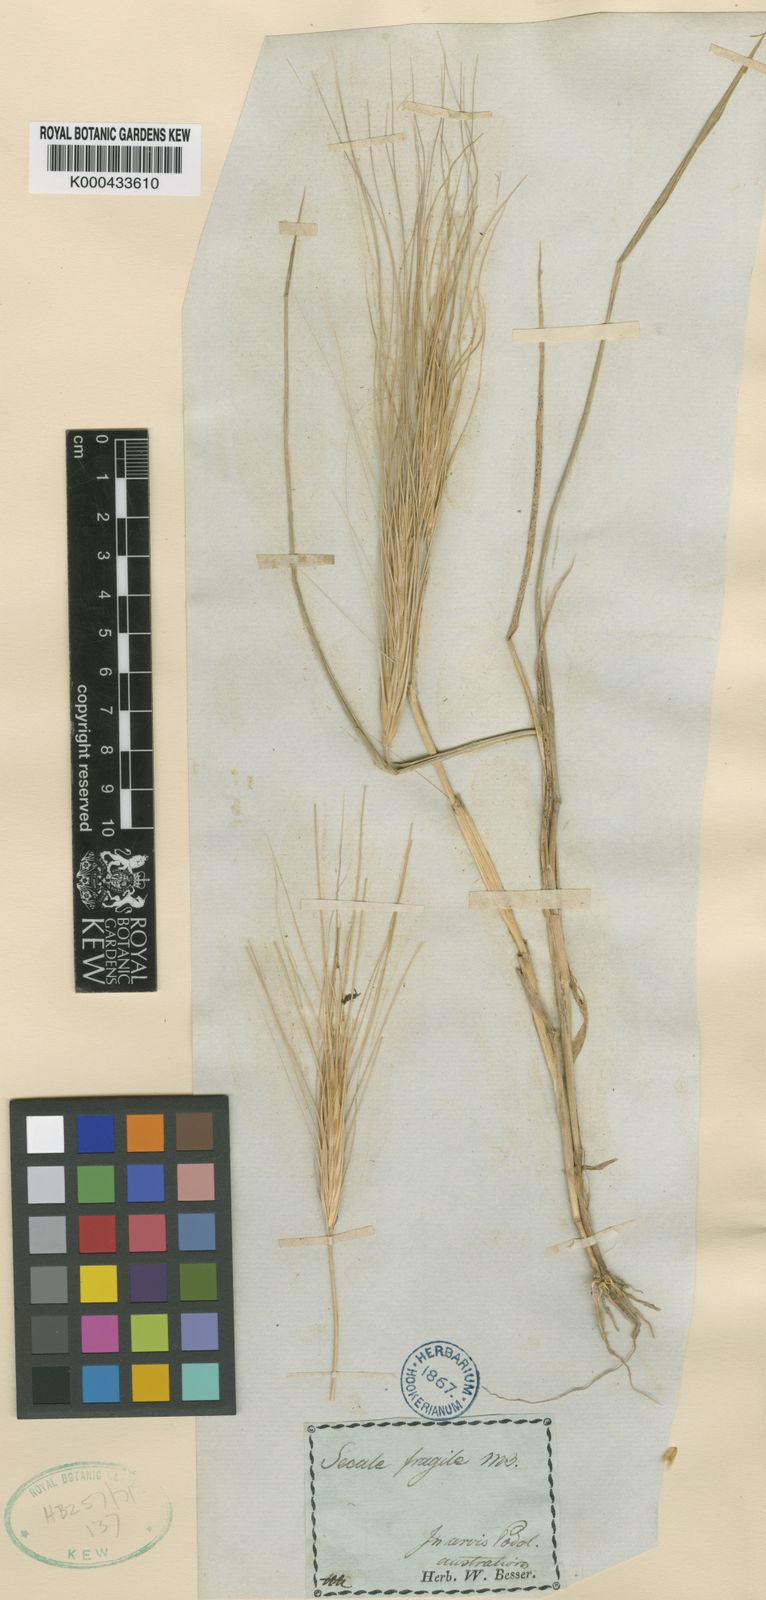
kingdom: Plantae
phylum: Tracheophyta
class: Liliopsida
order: Poales
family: Poaceae
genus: Secale
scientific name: Secale sylvestre
